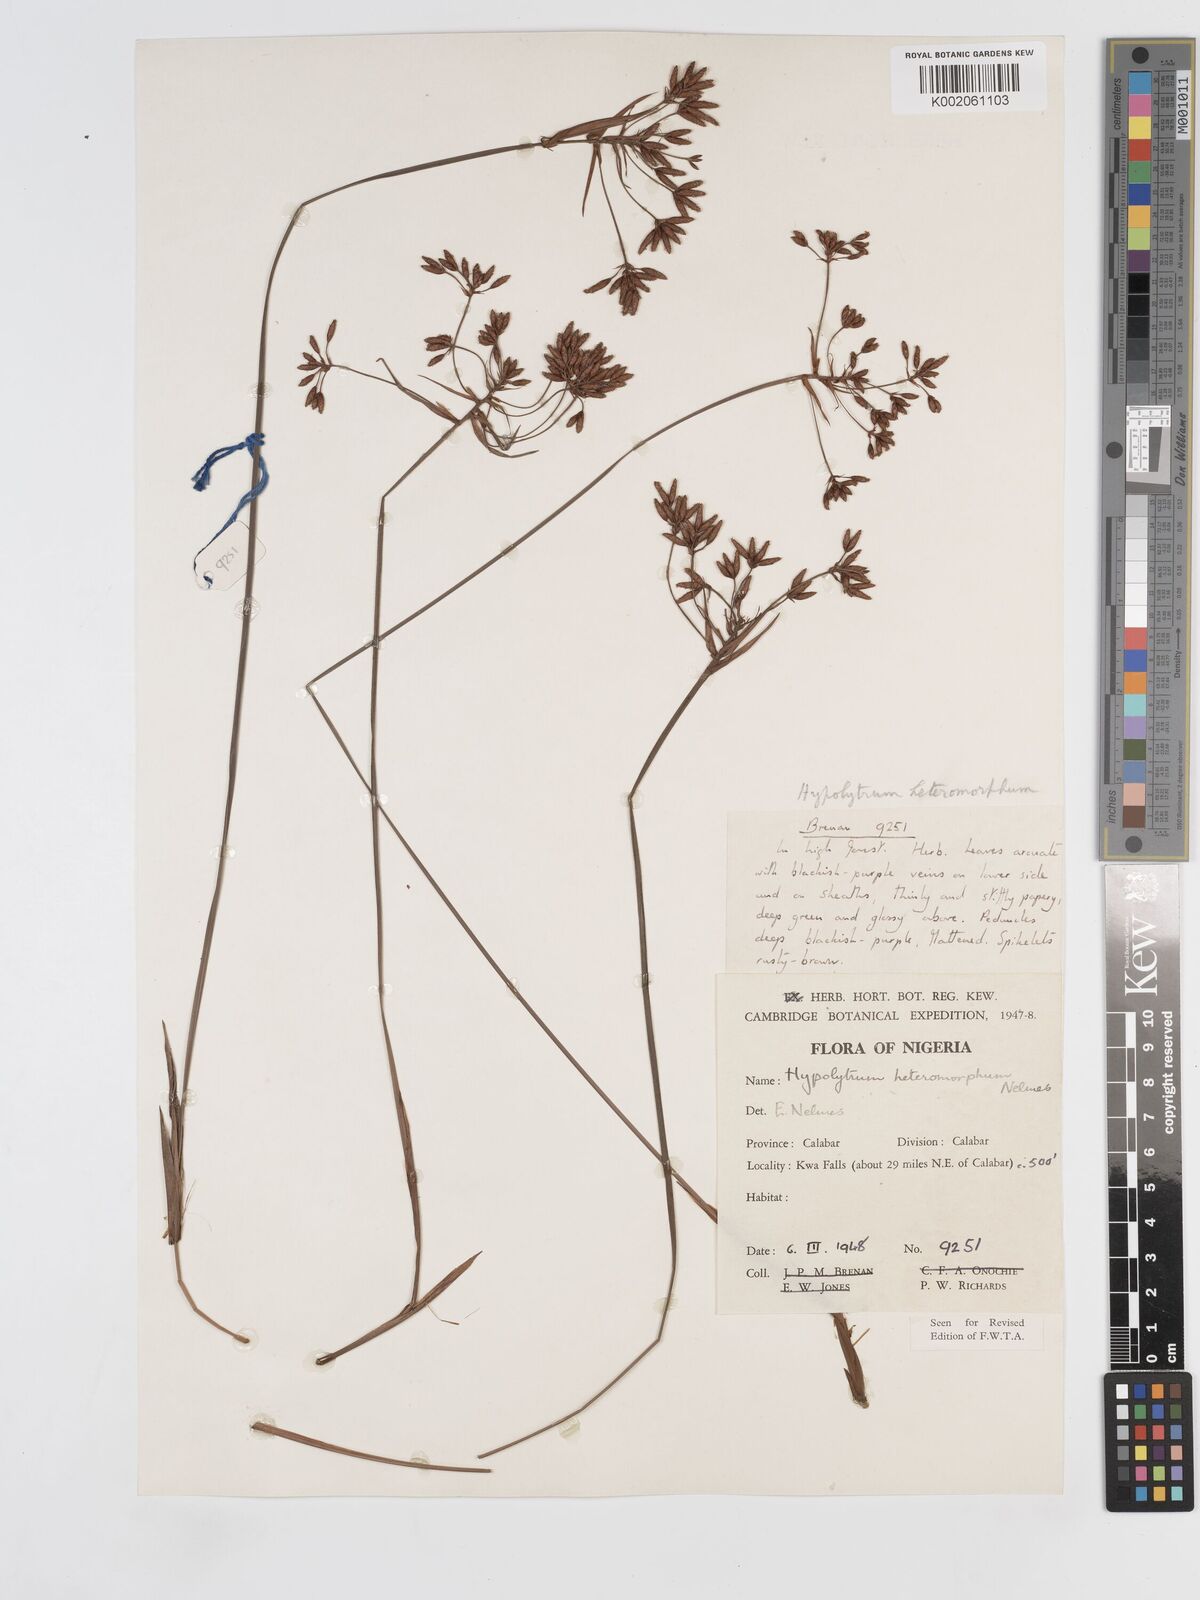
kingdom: Plantae
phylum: Tracheophyta
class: Liliopsida
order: Poales
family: Cyperaceae
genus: Hypolytrum
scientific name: Hypolytrum heteromorphum
